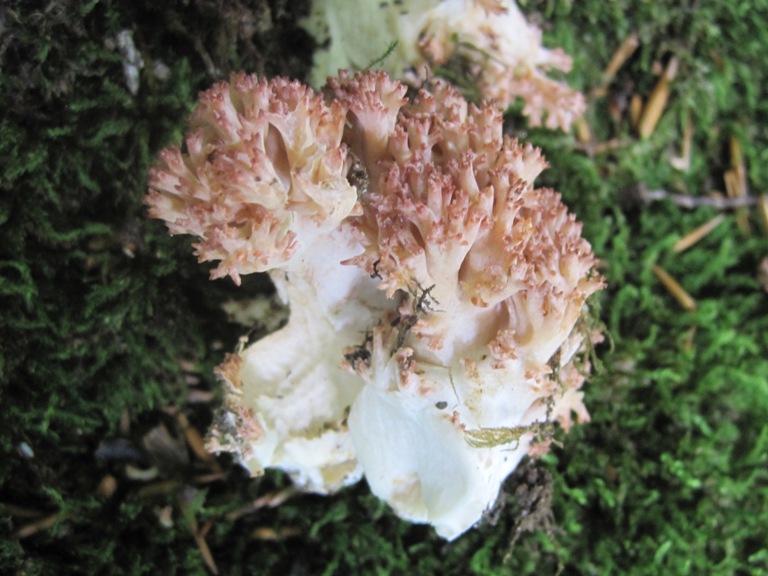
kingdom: Fungi
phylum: Basidiomycota
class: Agaricomycetes
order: Gomphales
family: Gomphaceae
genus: Ramaria
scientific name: Ramaria botrytis
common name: drue-koralsvamp
